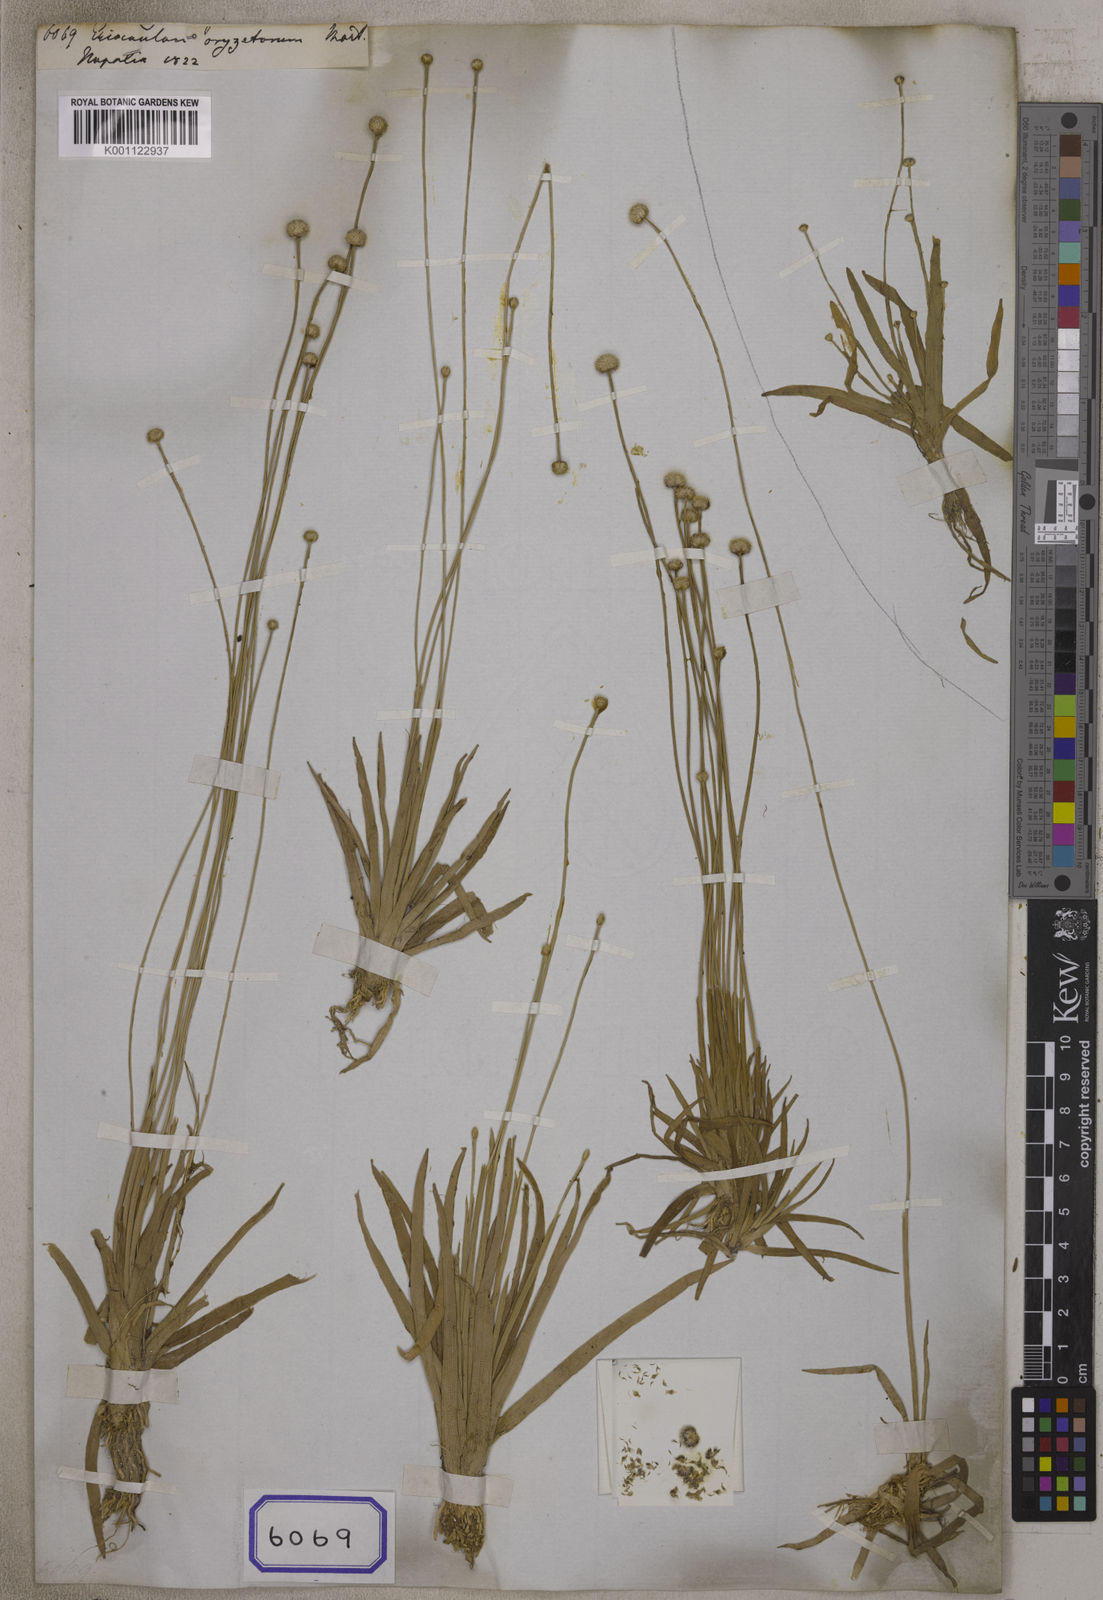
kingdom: Plantae
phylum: Tracheophyta
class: Liliopsida
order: Poales
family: Eriocaulaceae
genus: Eriocaulon
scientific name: Eriocaulon oryzetorum
